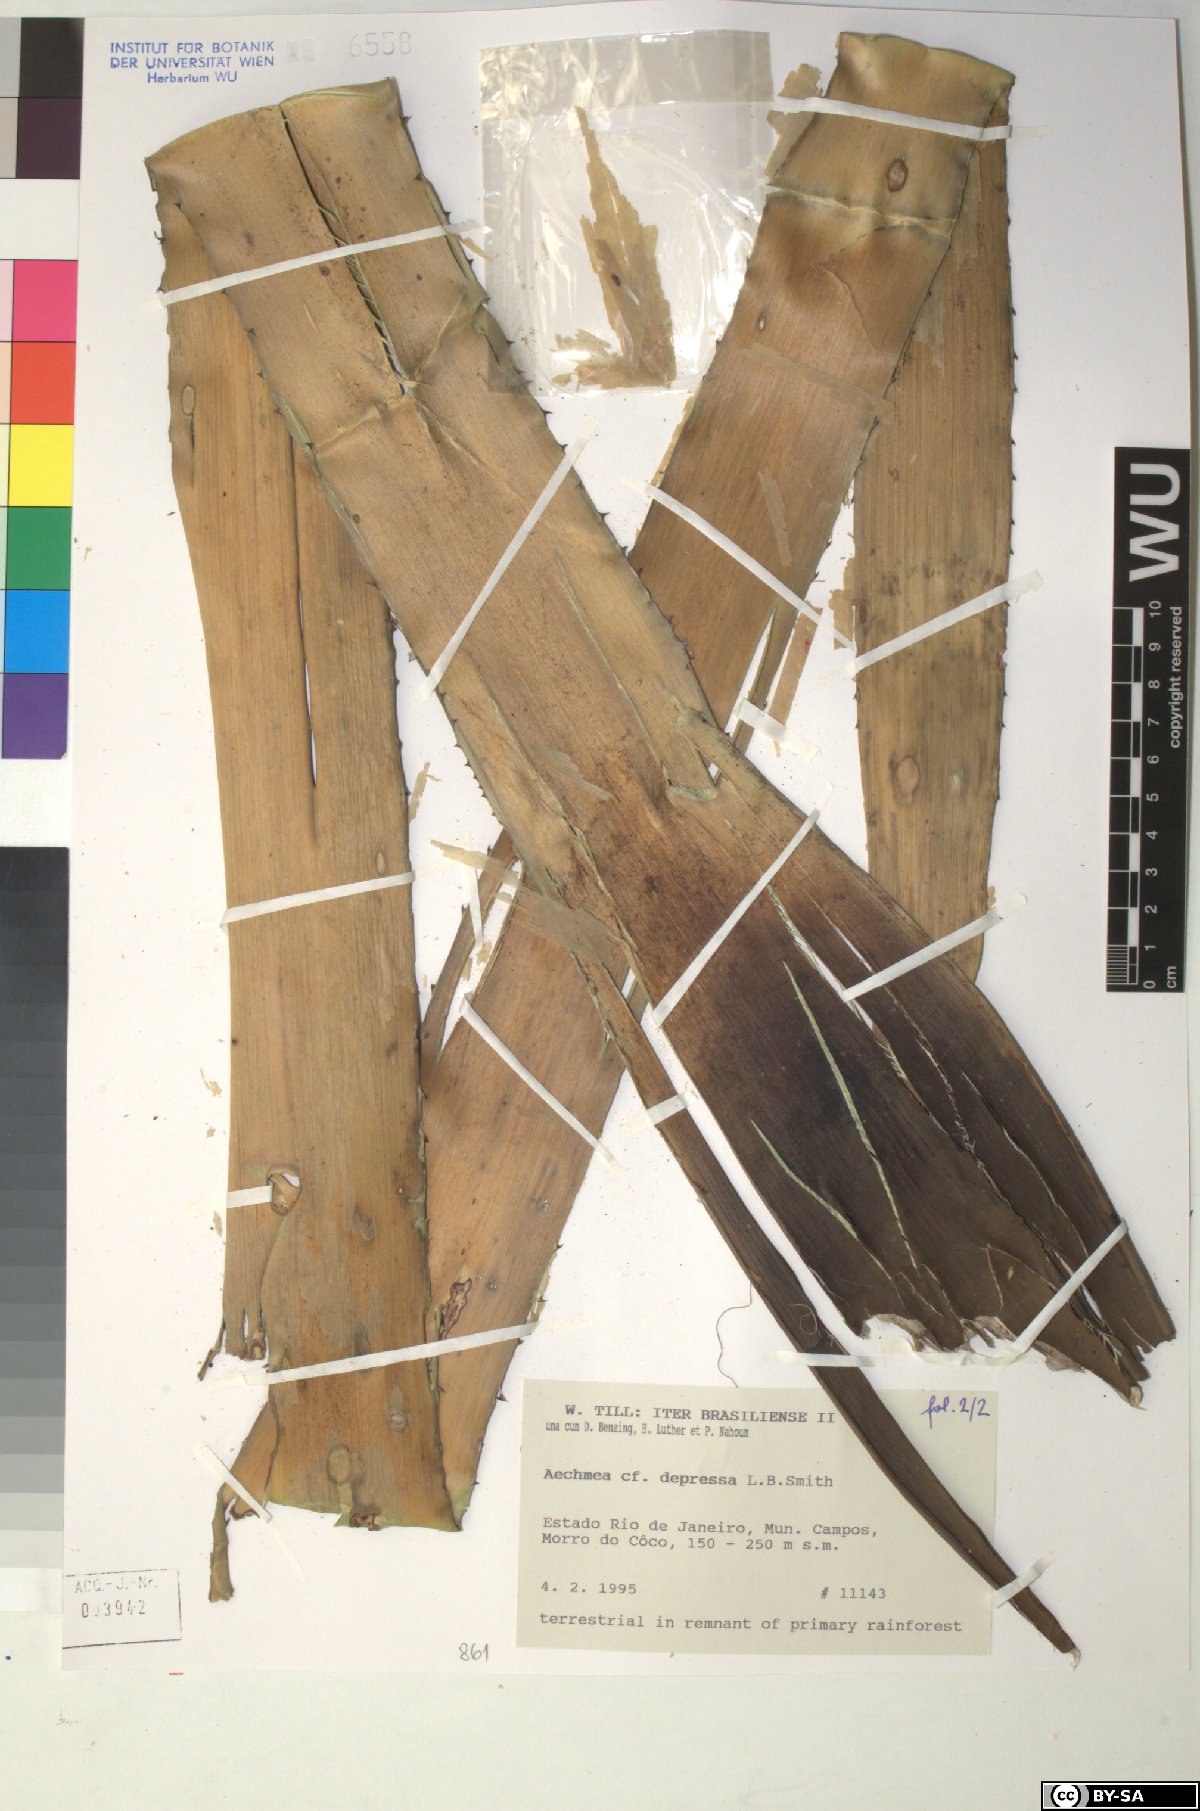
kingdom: Plantae
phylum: Tracheophyta
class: Liliopsida
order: Poales
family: Bromeliaceae
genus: Karawata
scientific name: Karawata depressa
